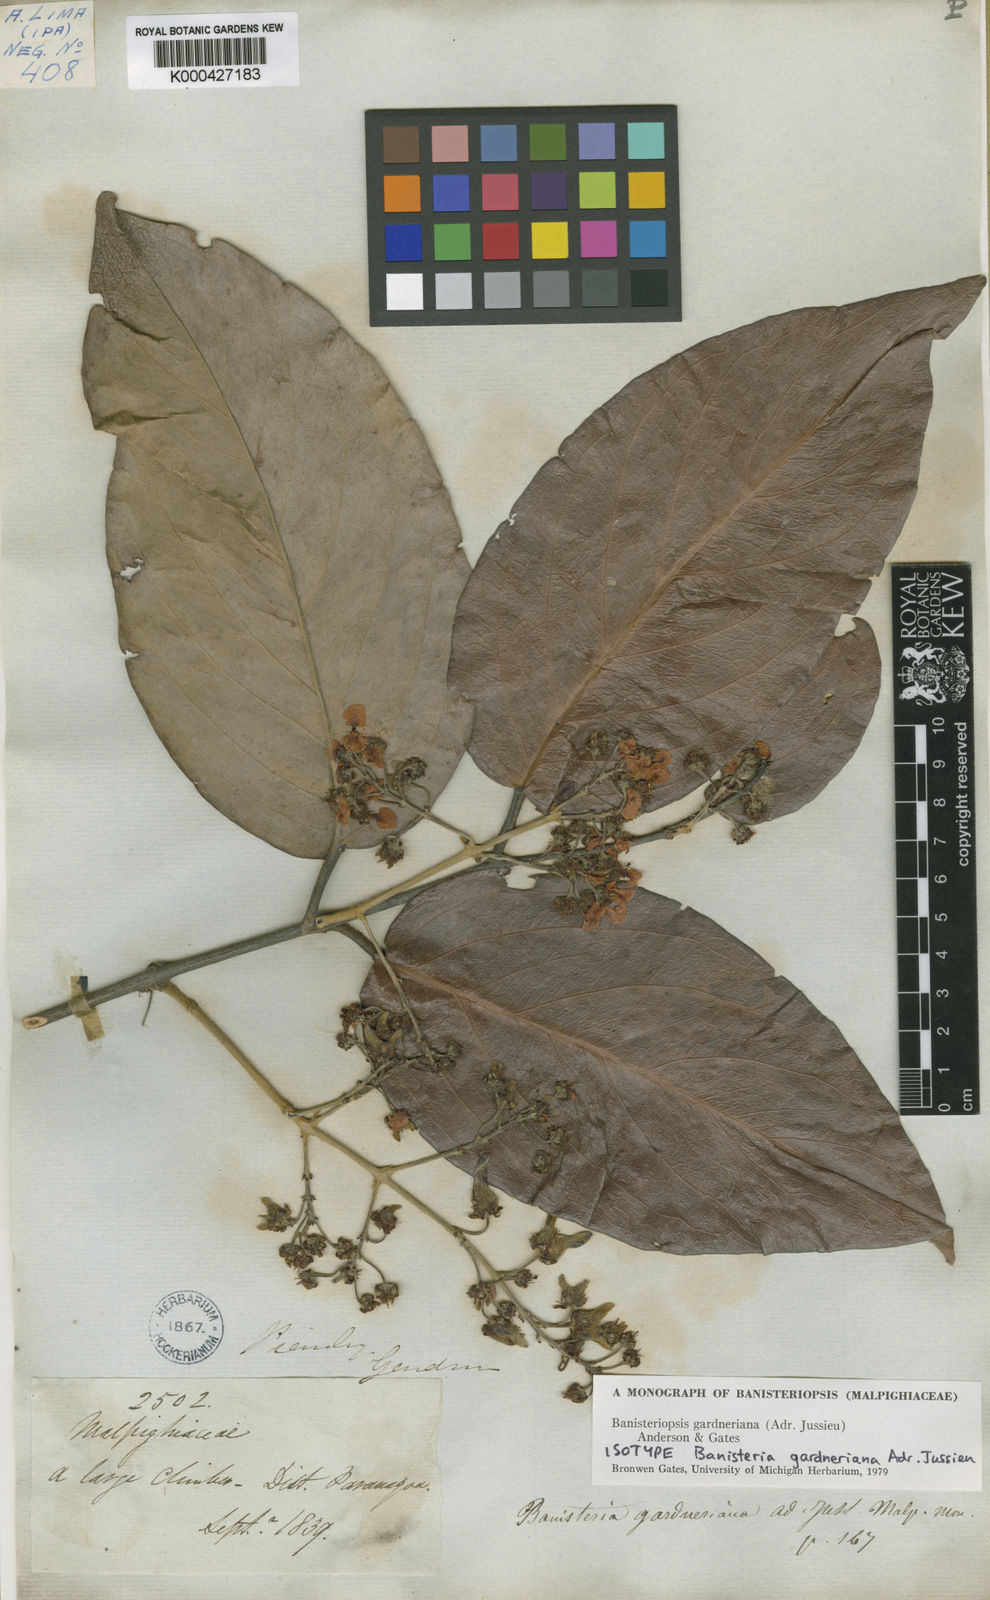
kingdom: Plantae
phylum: Tracheophyta
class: Magnoliopsida
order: Malpighiales
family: Malpighiaceae
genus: Banisteriopsis
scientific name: Banisteriopsis gardneriana
